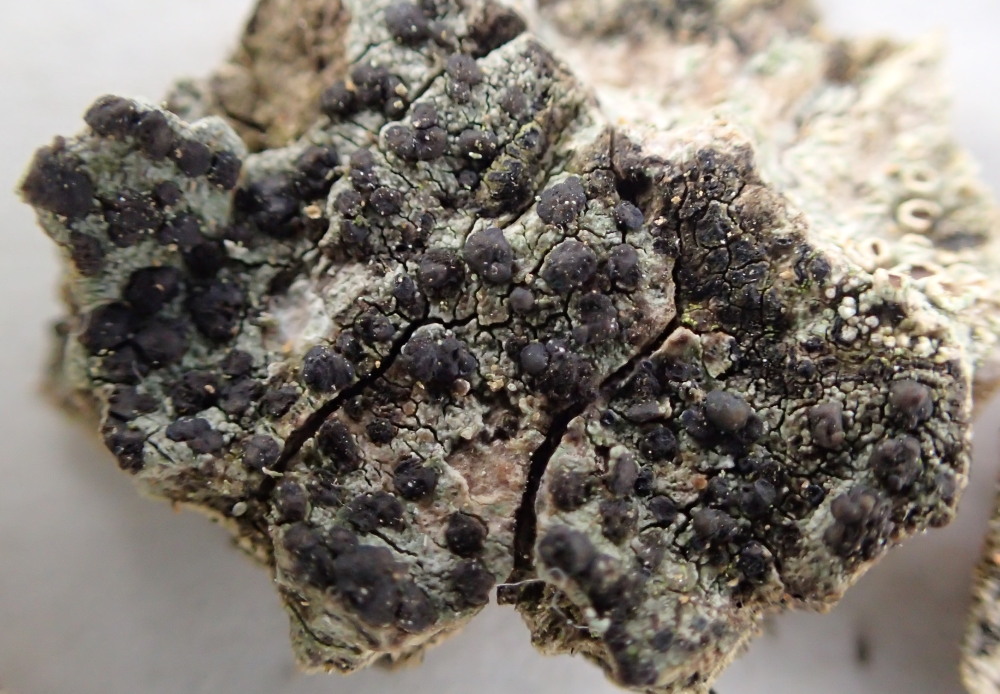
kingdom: Fungi
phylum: Ascomycota
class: Lecanoromycetes
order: Lecanorales
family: Lecanoraceae
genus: Lecidella
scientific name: Lecidella euphorea
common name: vortet skivelav
